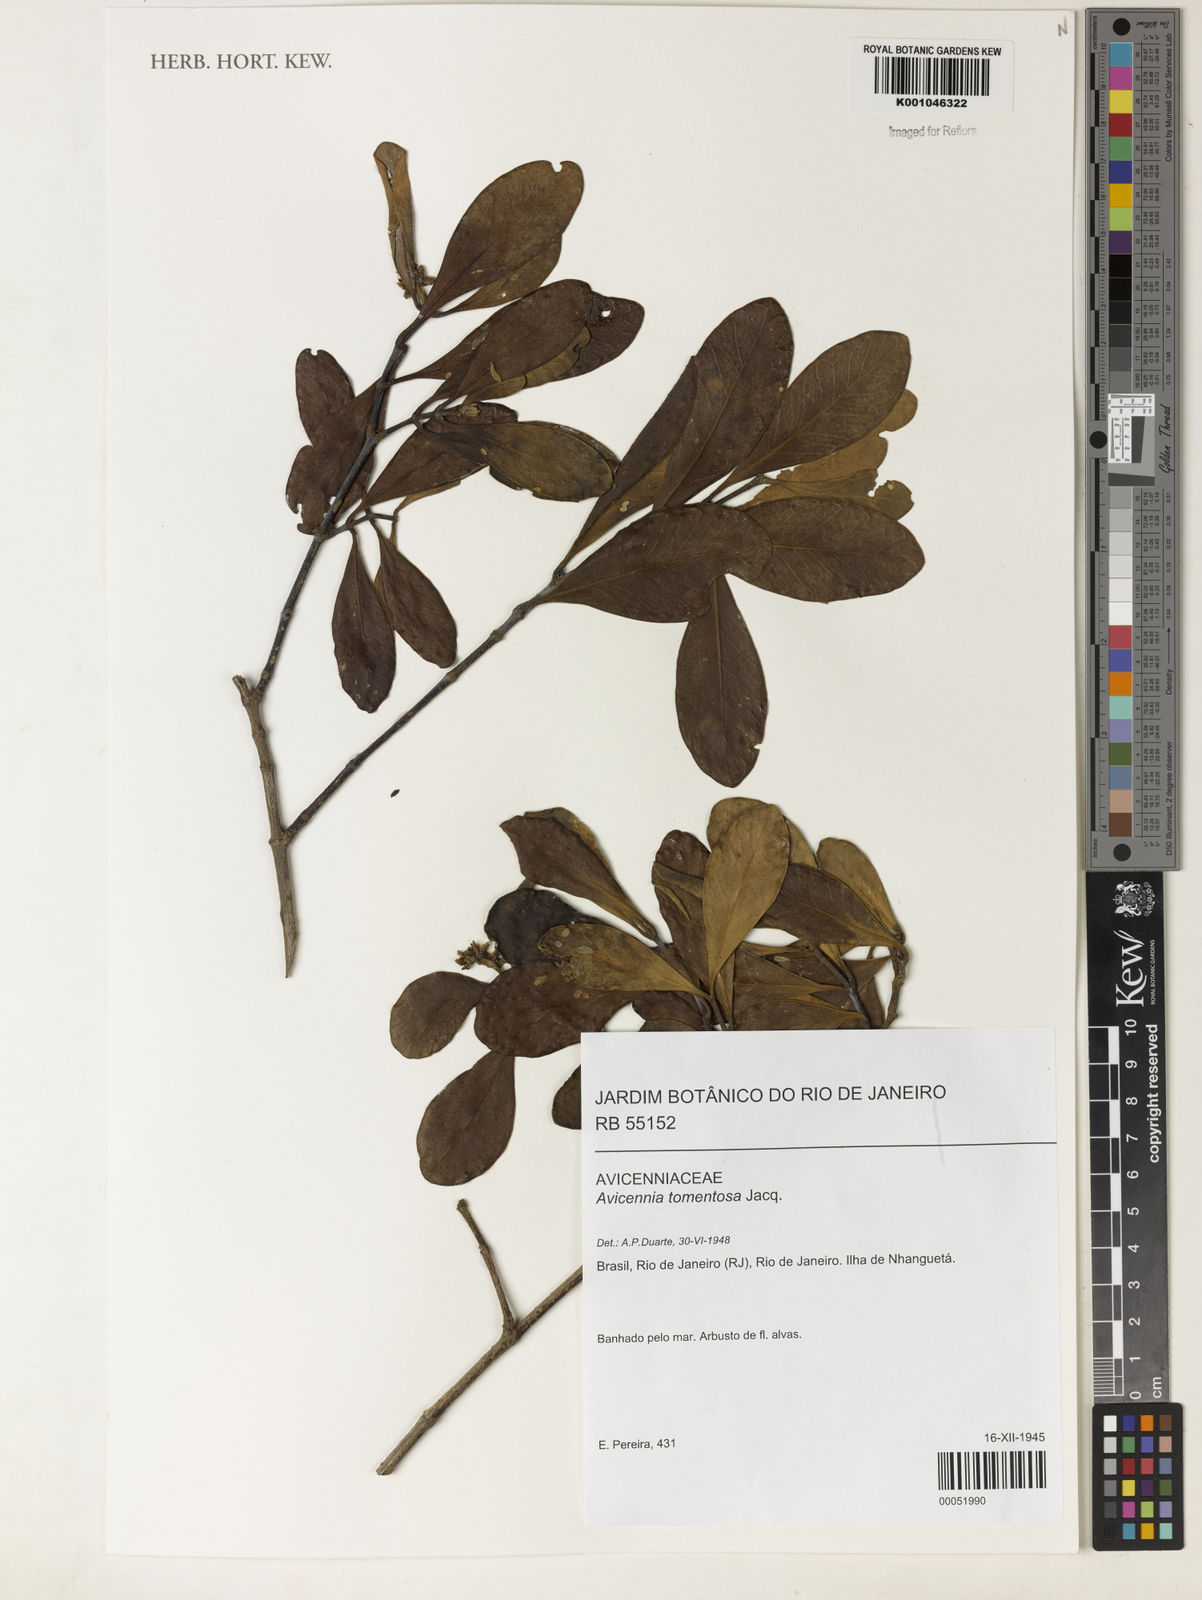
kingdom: Plantae
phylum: Tracheophyta
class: Magnoliopsida
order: Lamiales
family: Acanthaceae
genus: Avicennia
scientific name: Avicennia germinans
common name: Black mangrove
